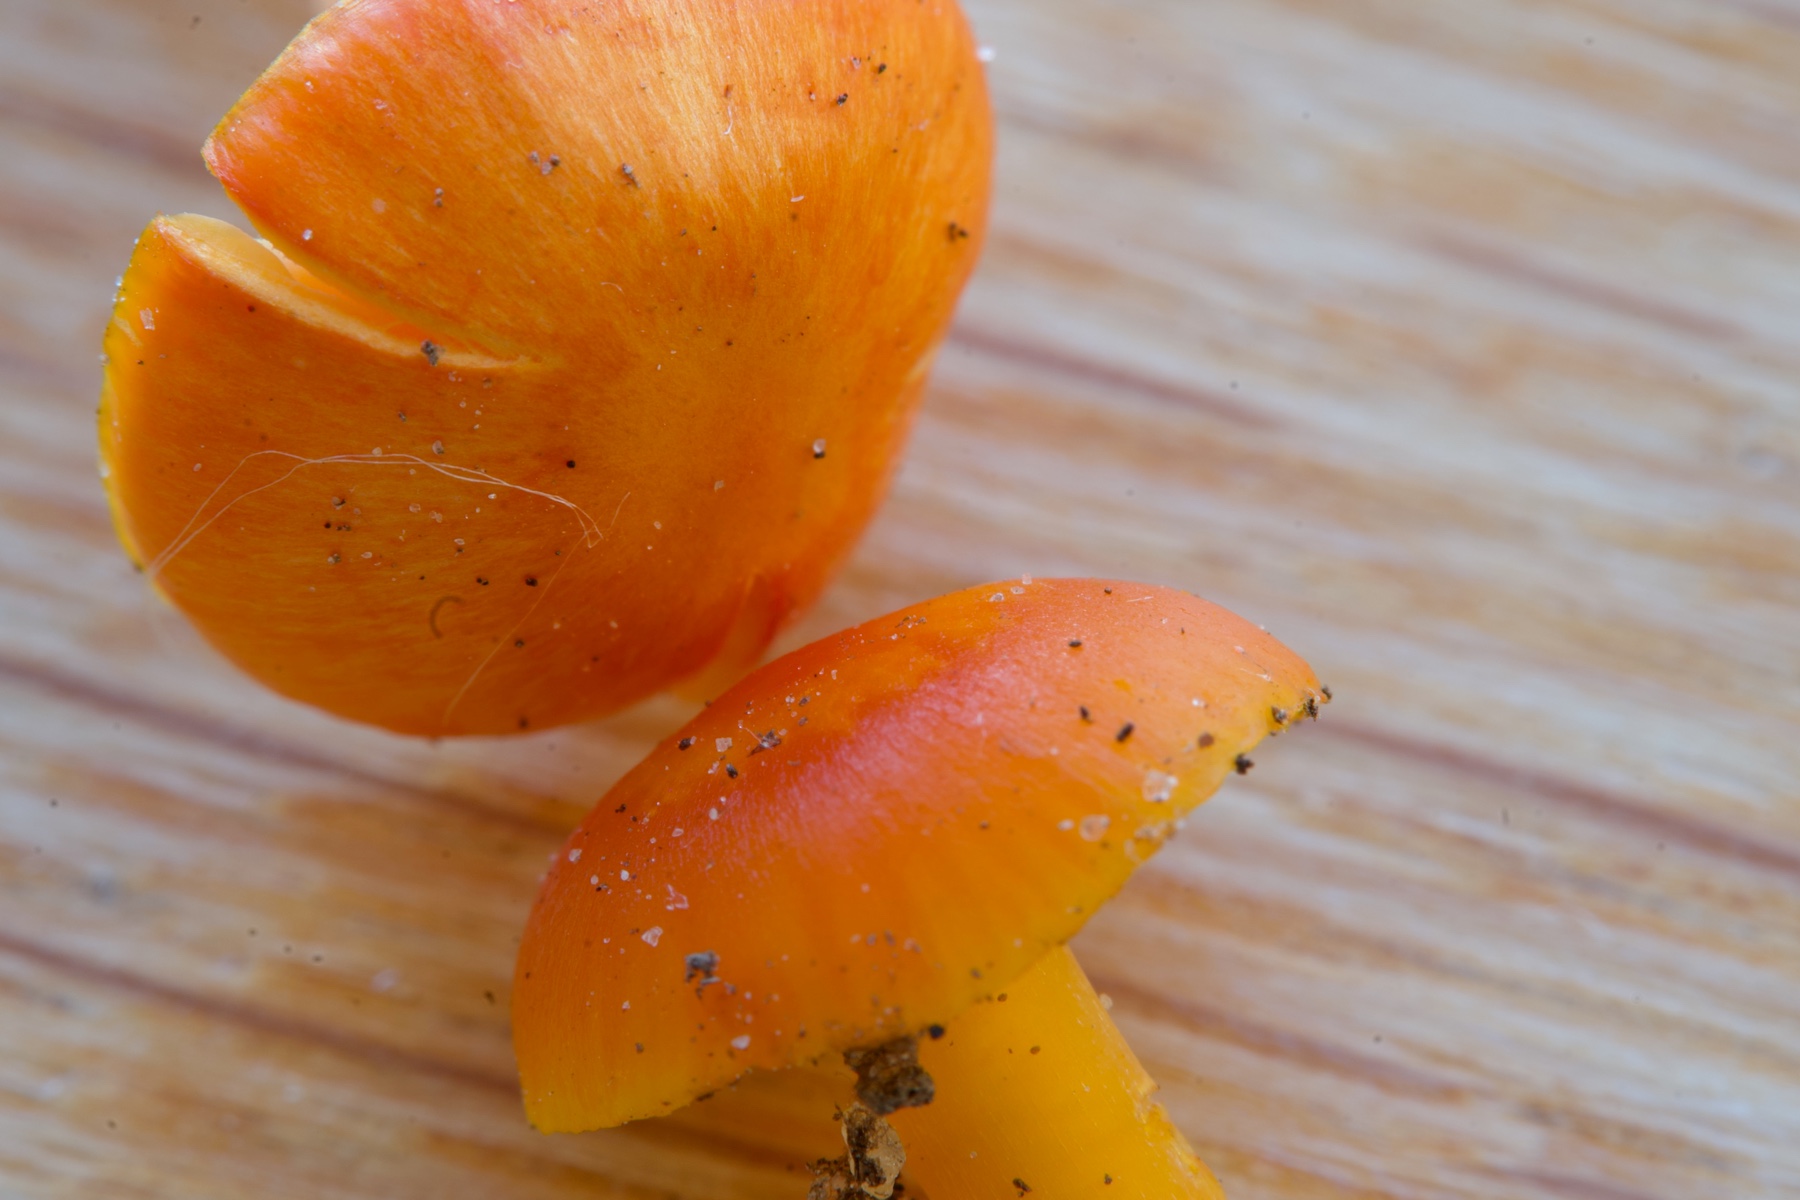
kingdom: Fungi
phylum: Basidiomycota
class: Agaricomycetes
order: Agaricales
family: Hygrophoraceae
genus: Hygrocybe
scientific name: Hygrocybe ceracea
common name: voksgul vokshat
